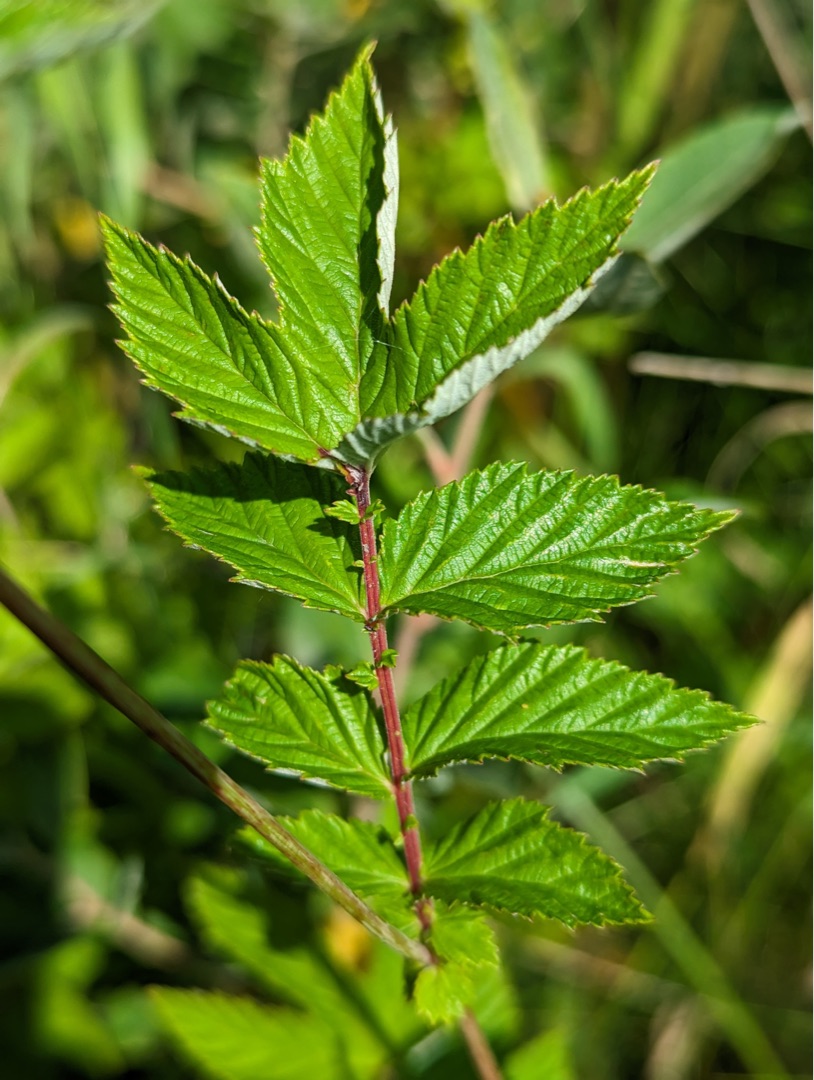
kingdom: Plantae
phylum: Tracheophyta
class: Magnoliopsida
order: Rosales
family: Rosaceae
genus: Filipendula
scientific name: Filipendula ulmaria
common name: Almindelig mjødurt
